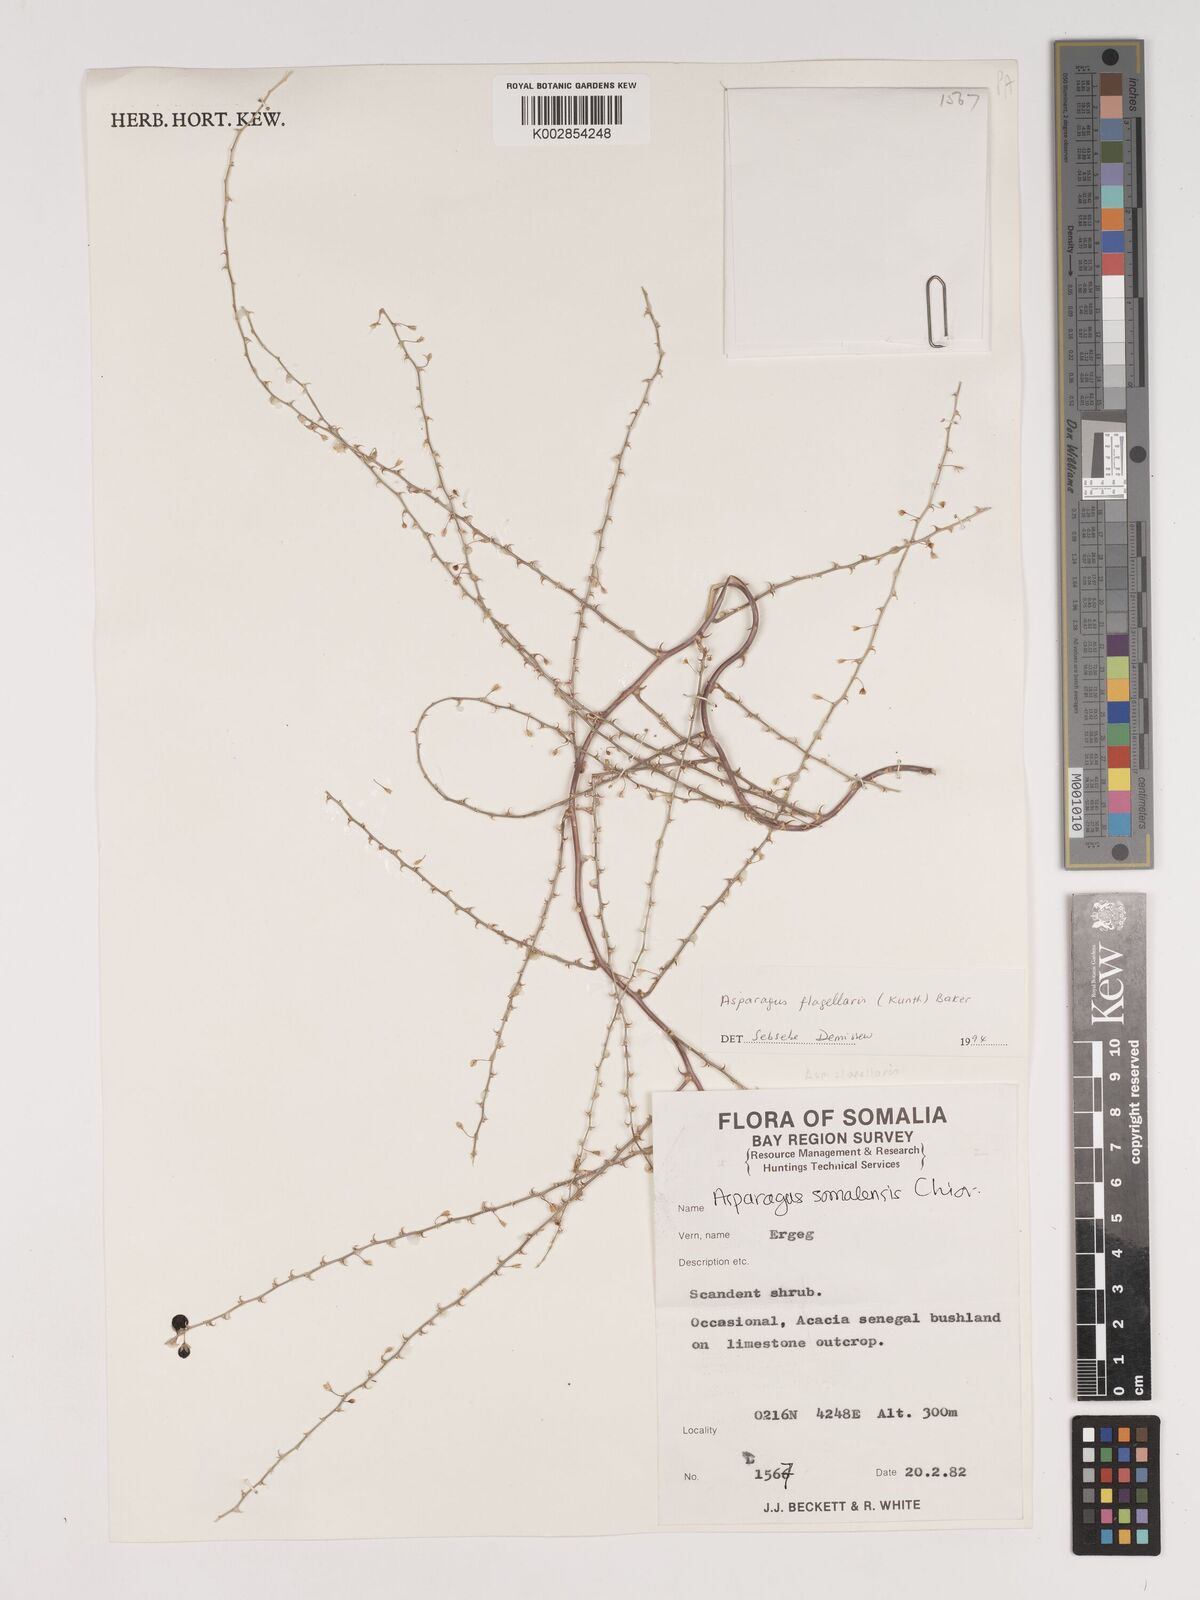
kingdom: Plantae
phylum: Tracheophyta
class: Liliopsida
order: Asparagales
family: Asparagaceae
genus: Asparagus
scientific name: Asparagus flagellaris
